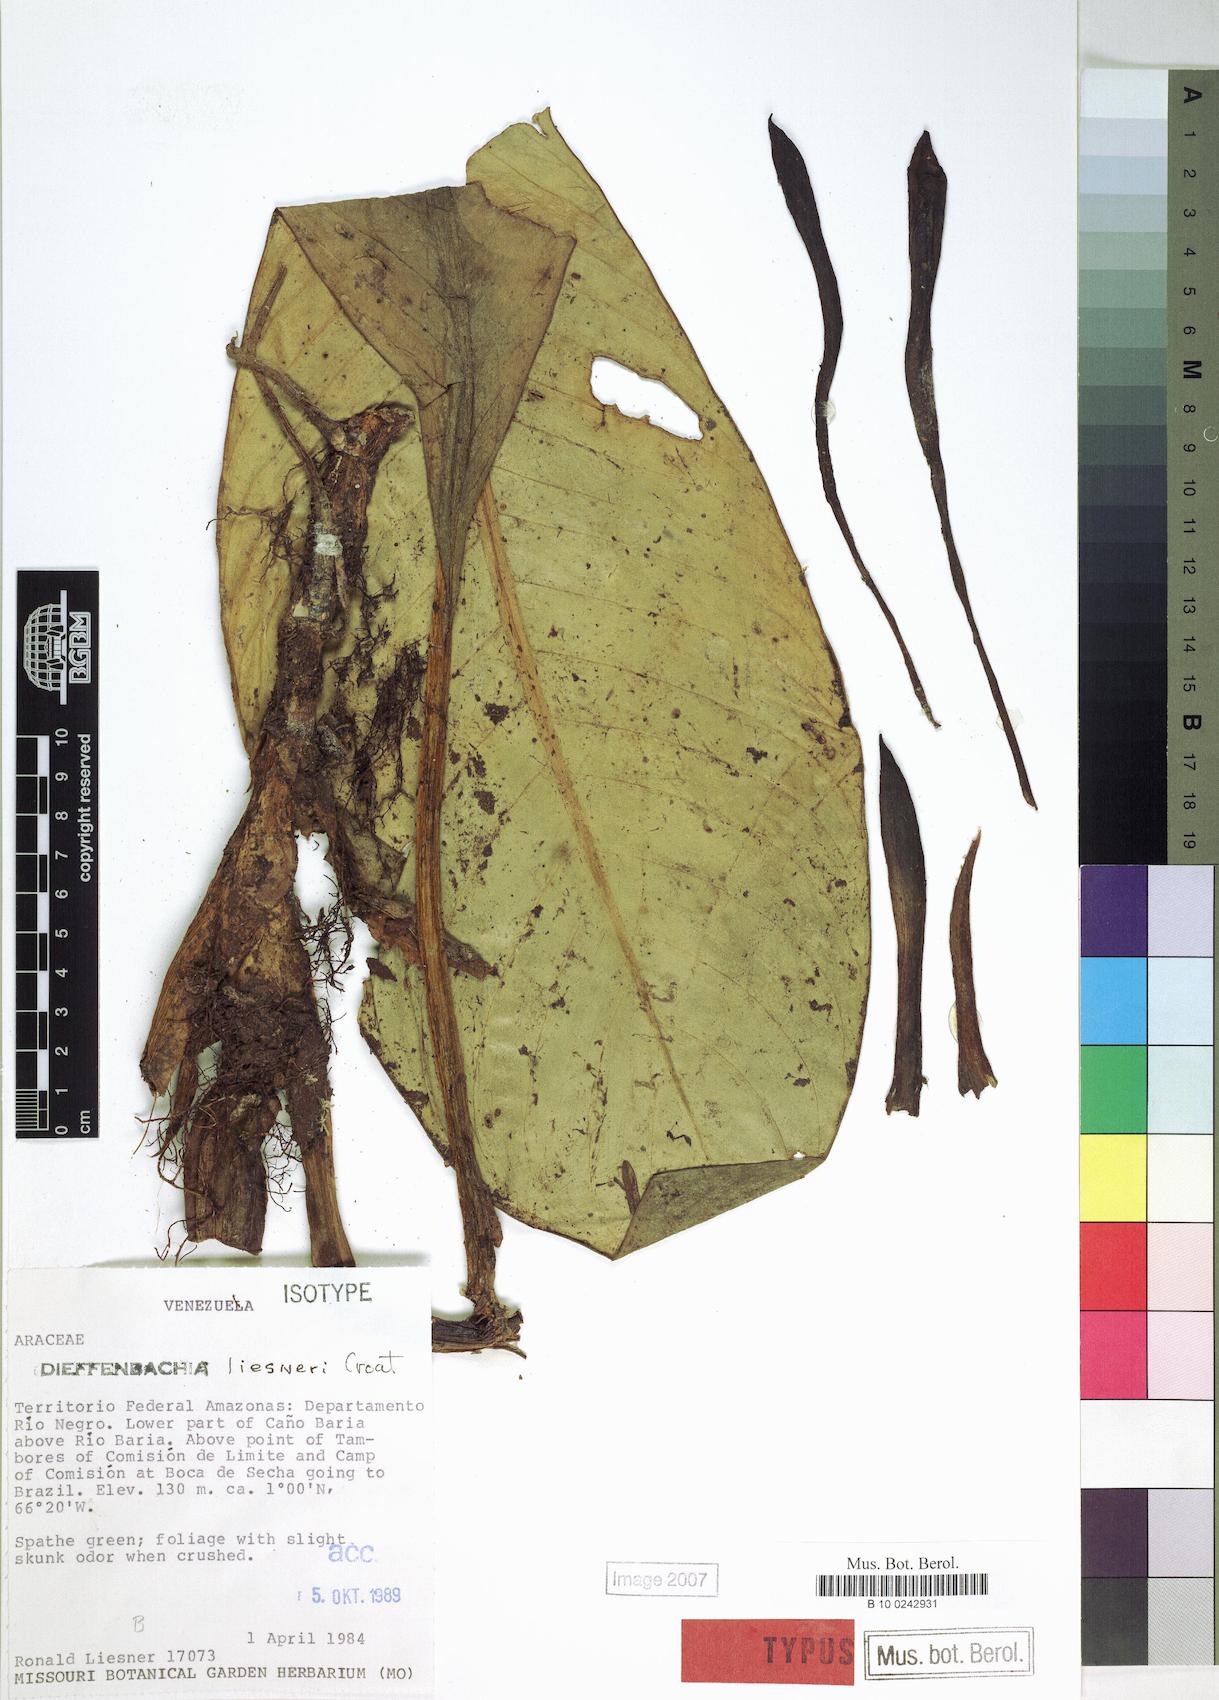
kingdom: Plantae
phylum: Tracheophyta
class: Liliopsida
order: Alismatales
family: Araceae
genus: Dieffenbachia
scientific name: Dieffenbachia duidae
